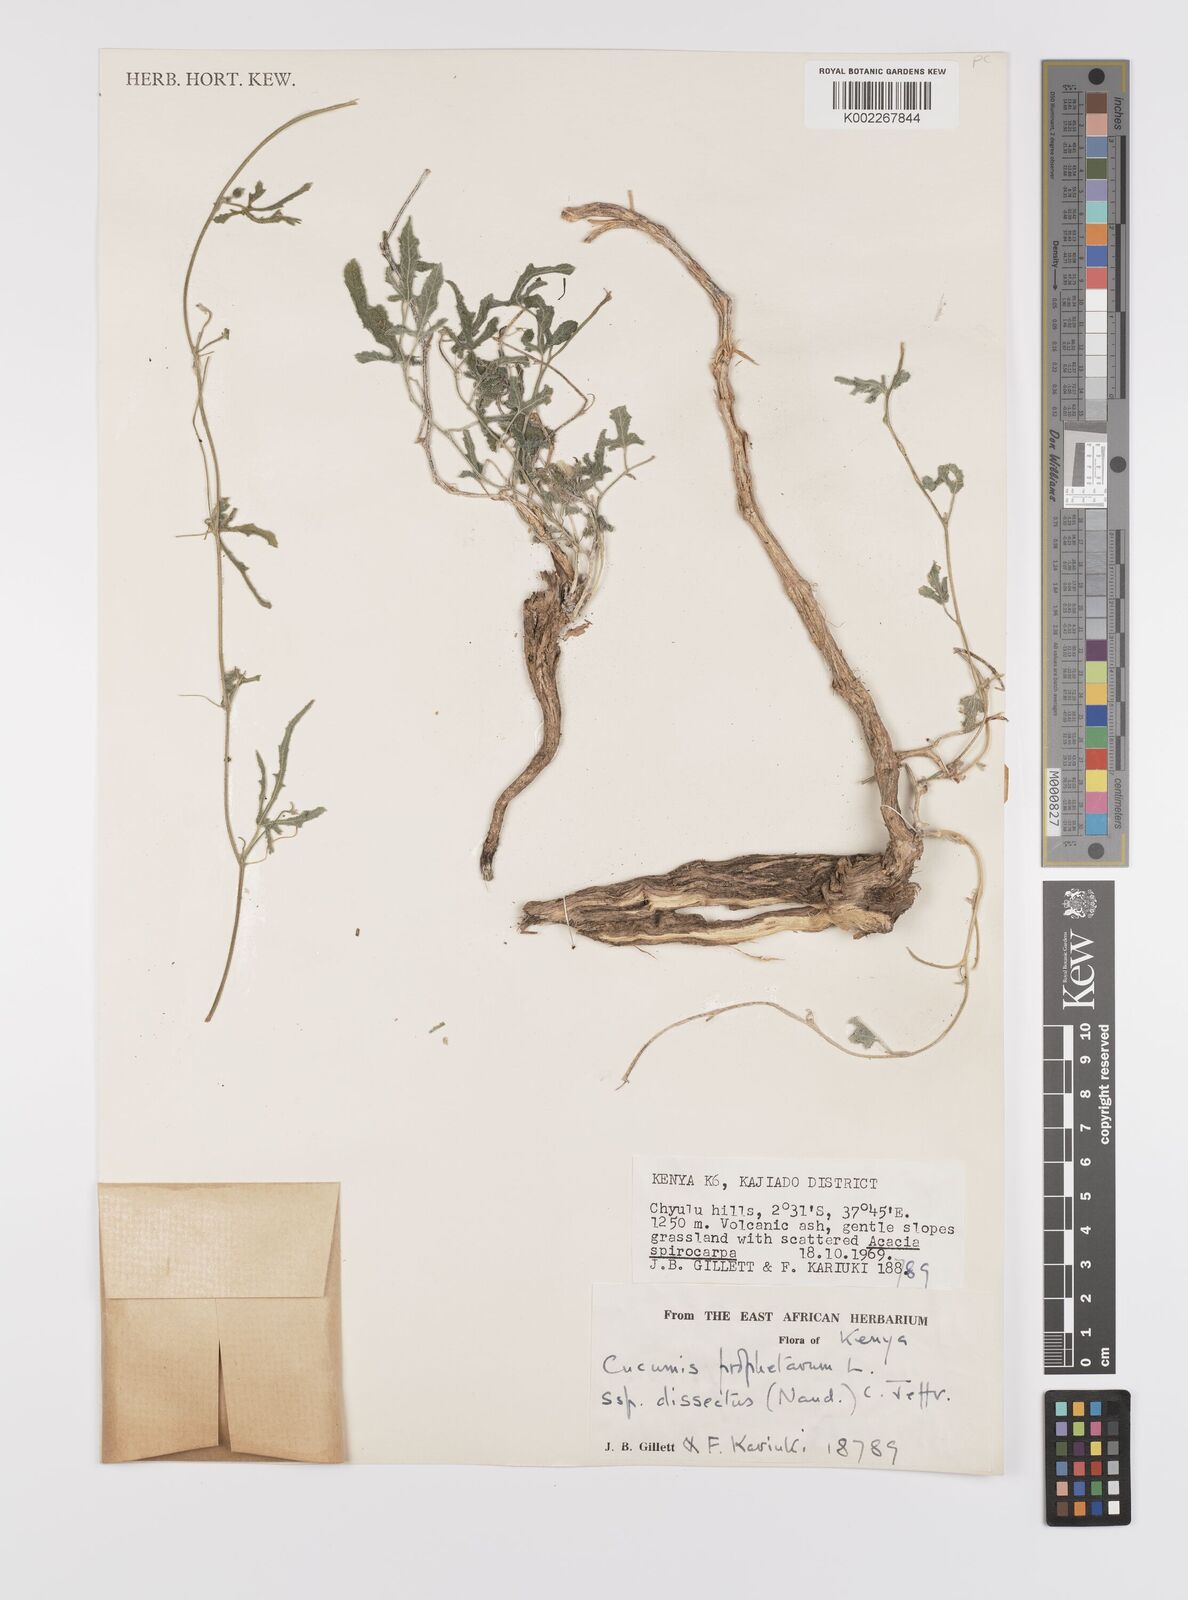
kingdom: Plantae
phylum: Tracheophyta
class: Magnoliopsida
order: Cucurbitales
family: Cucurbitaceae
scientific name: Cucurbitaceae
